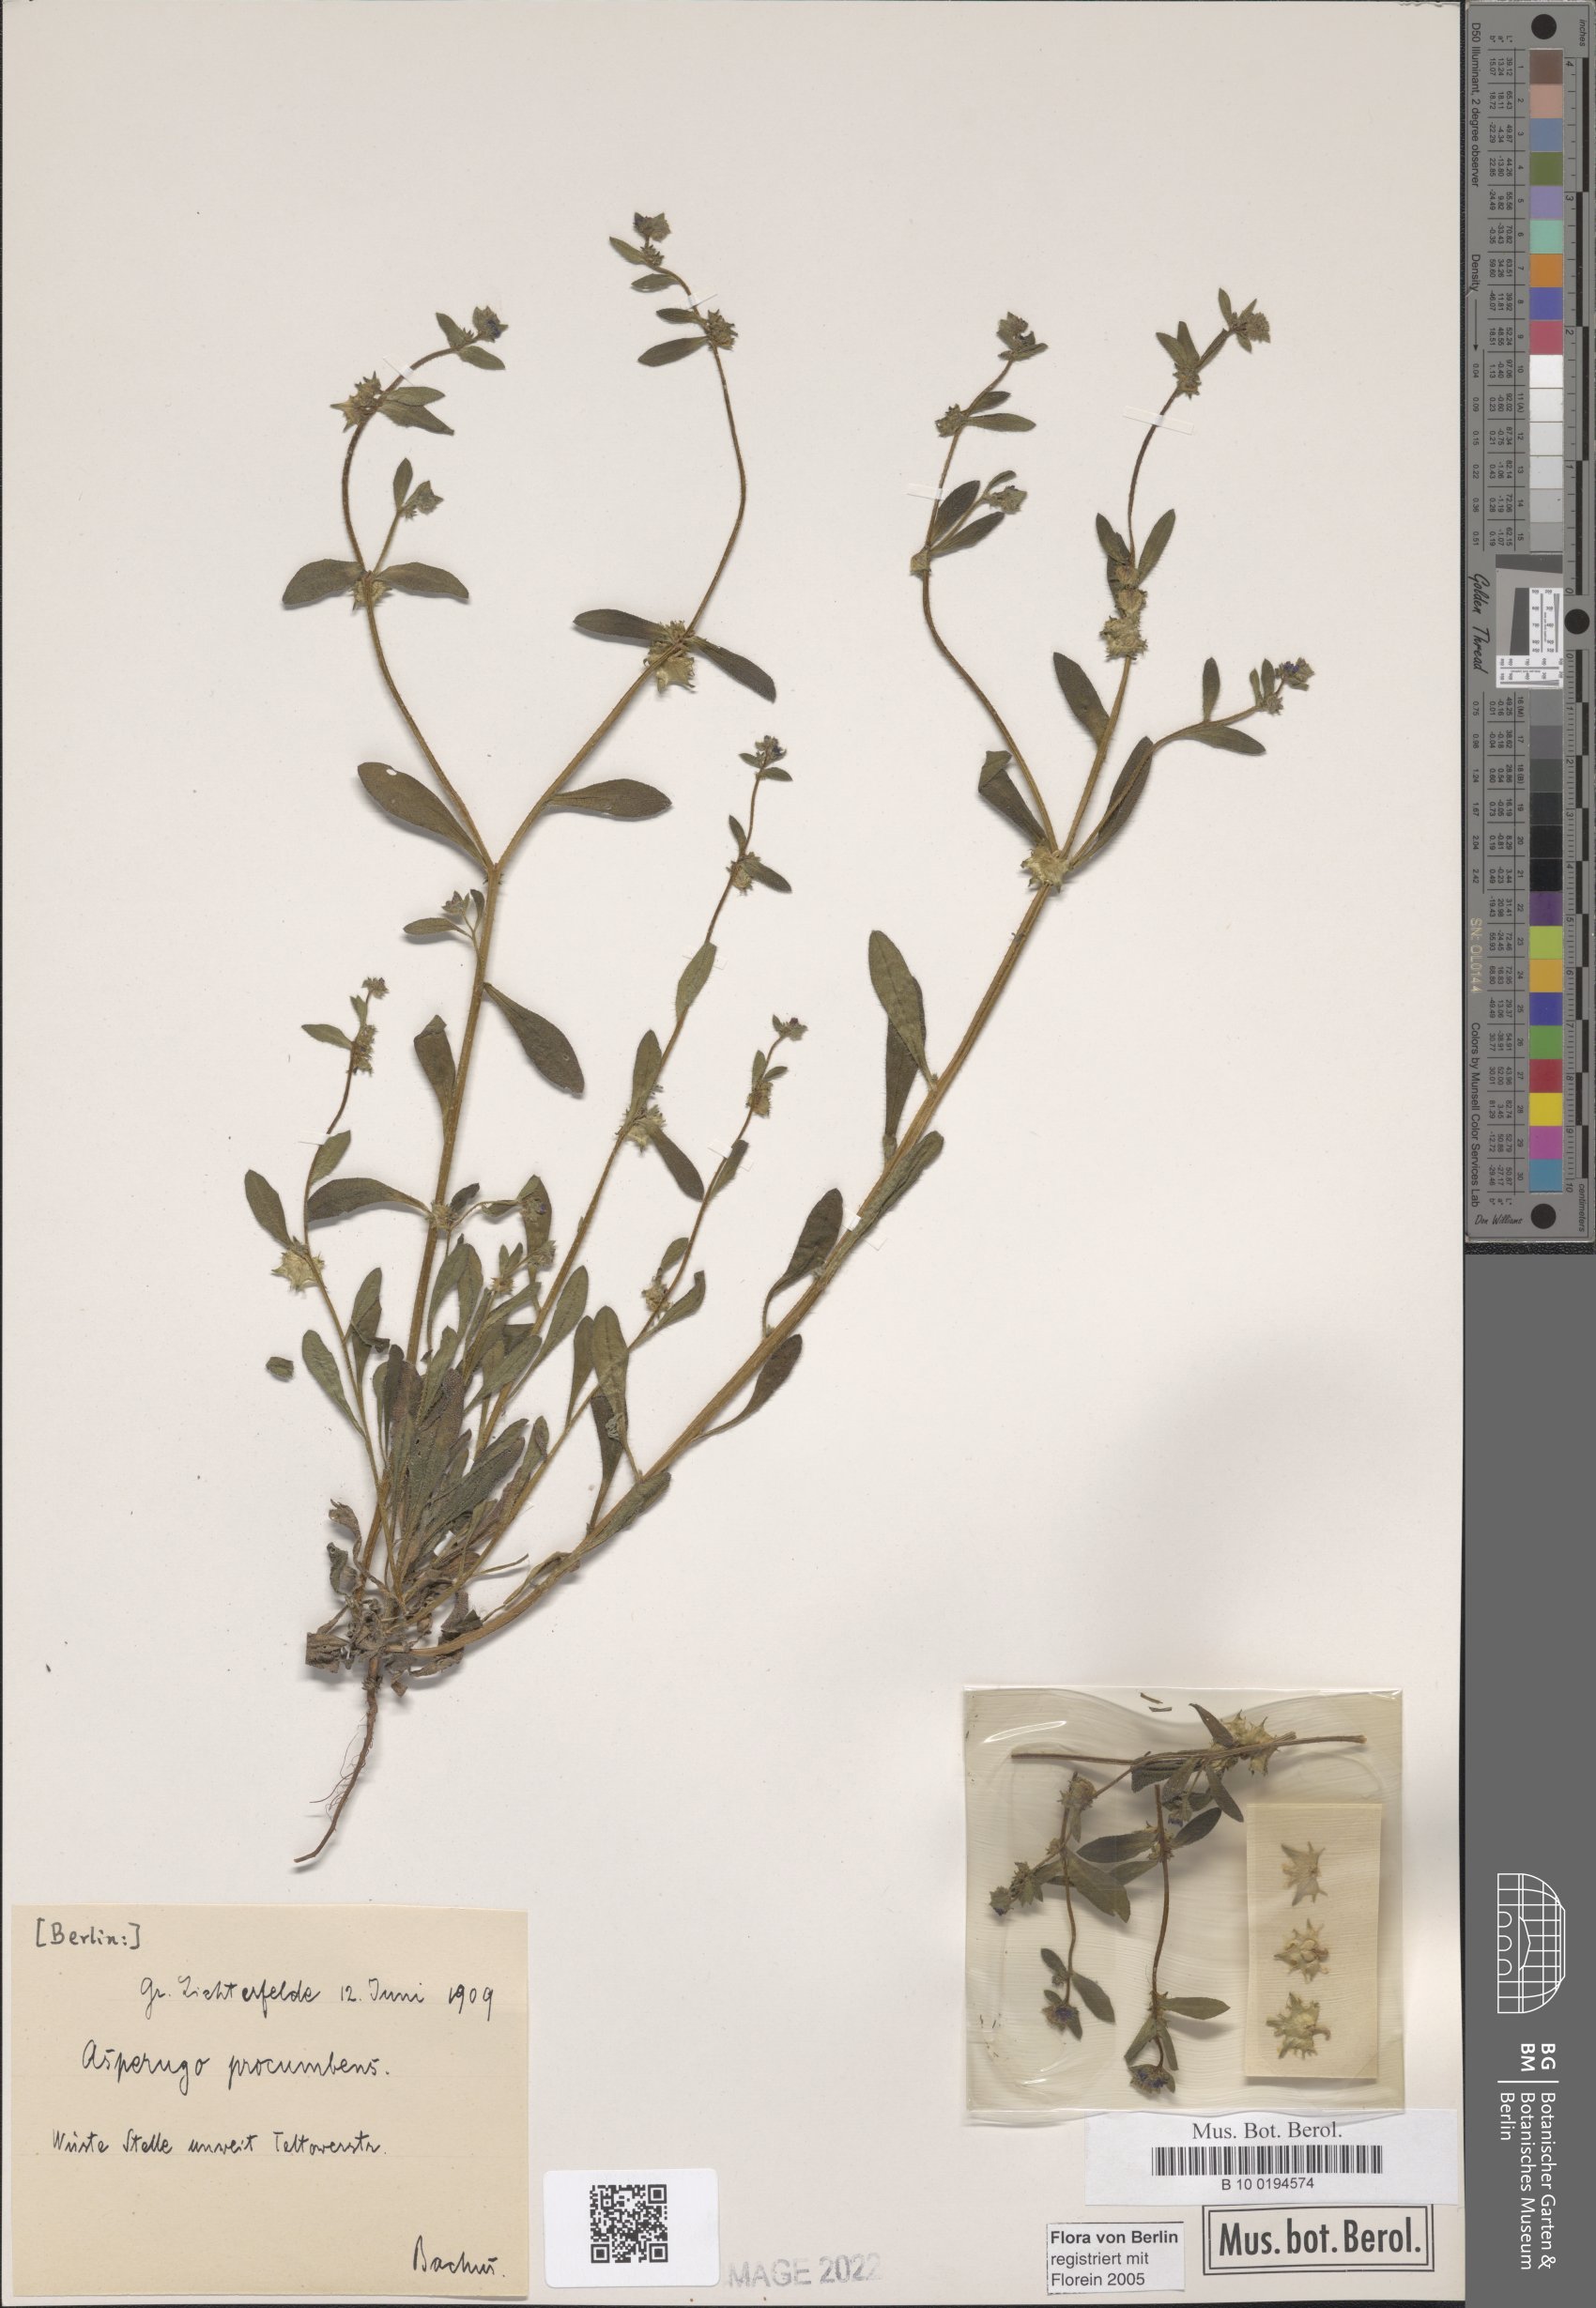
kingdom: Plantae
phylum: Tracheophyta
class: Magnoliopsida
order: Boraginales
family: Boraginaceae
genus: Asperugo
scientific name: Asperugo procumbens
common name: Madwort
